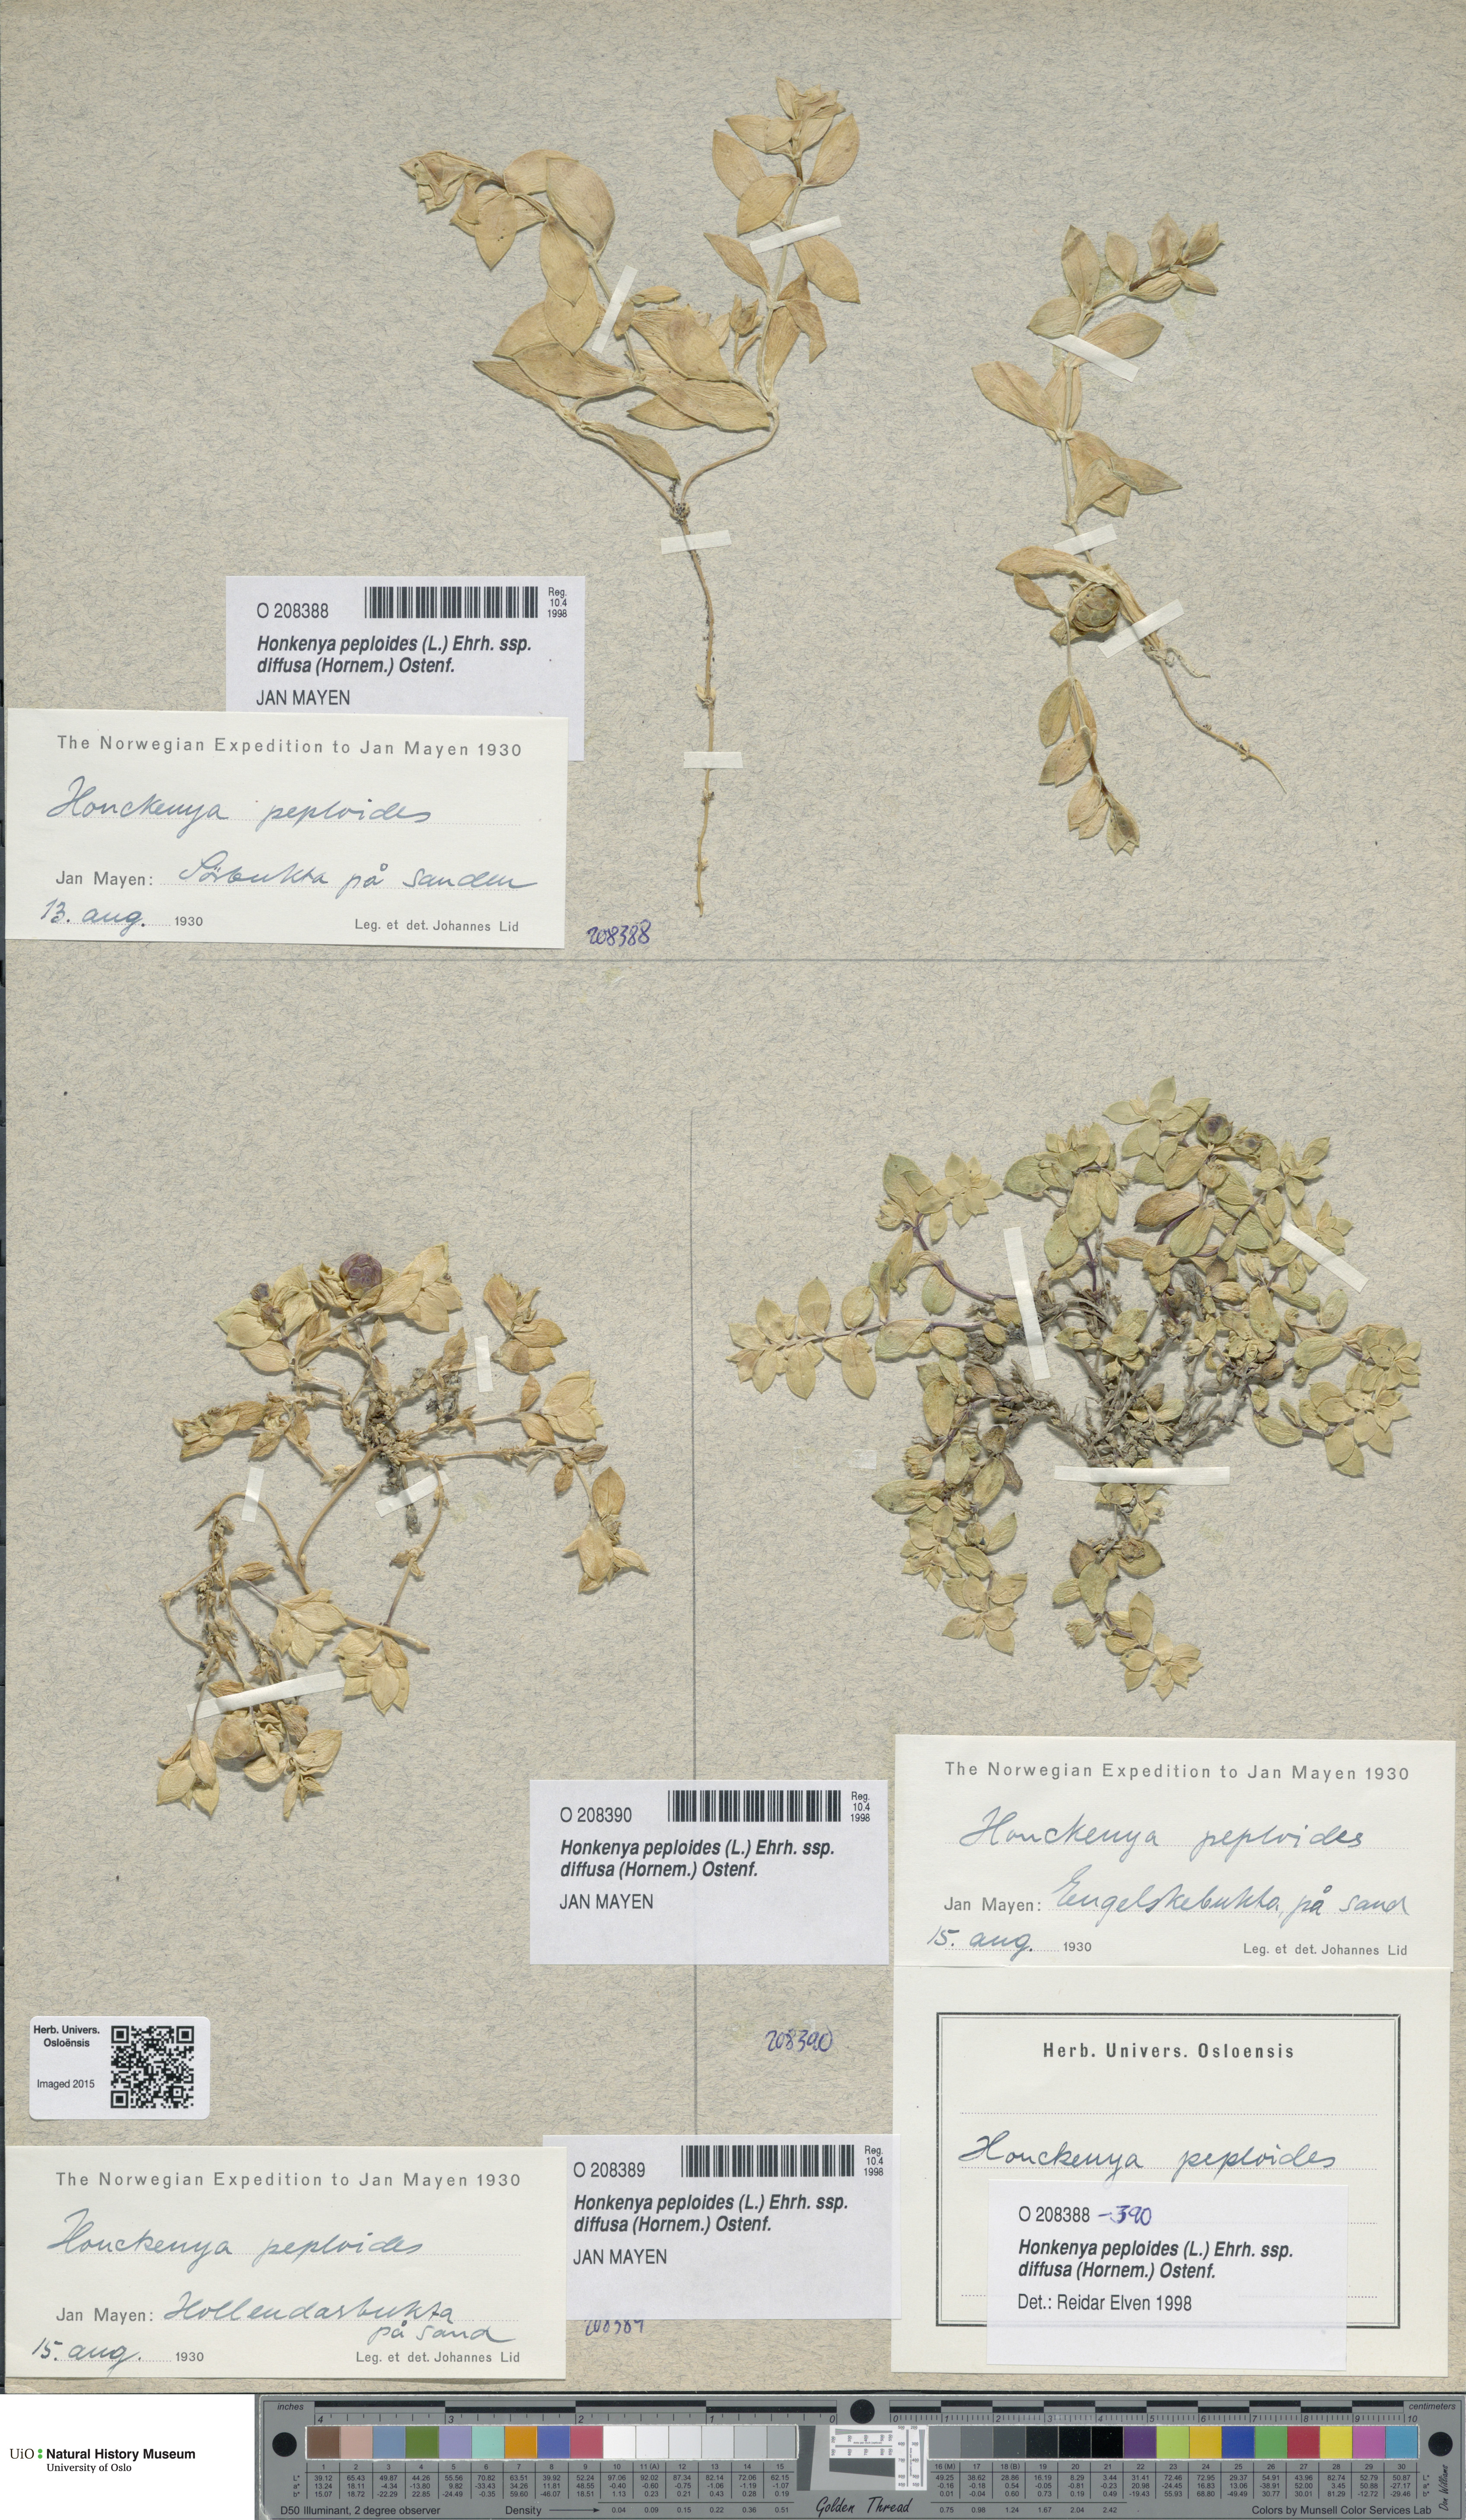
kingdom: Plantae
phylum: Tracheophyta
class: Magnoliopsida
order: Caryophyllales
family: Caryophyllaceae
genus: Honckenya
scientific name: Honckenya peploides
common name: Sea sandwort
